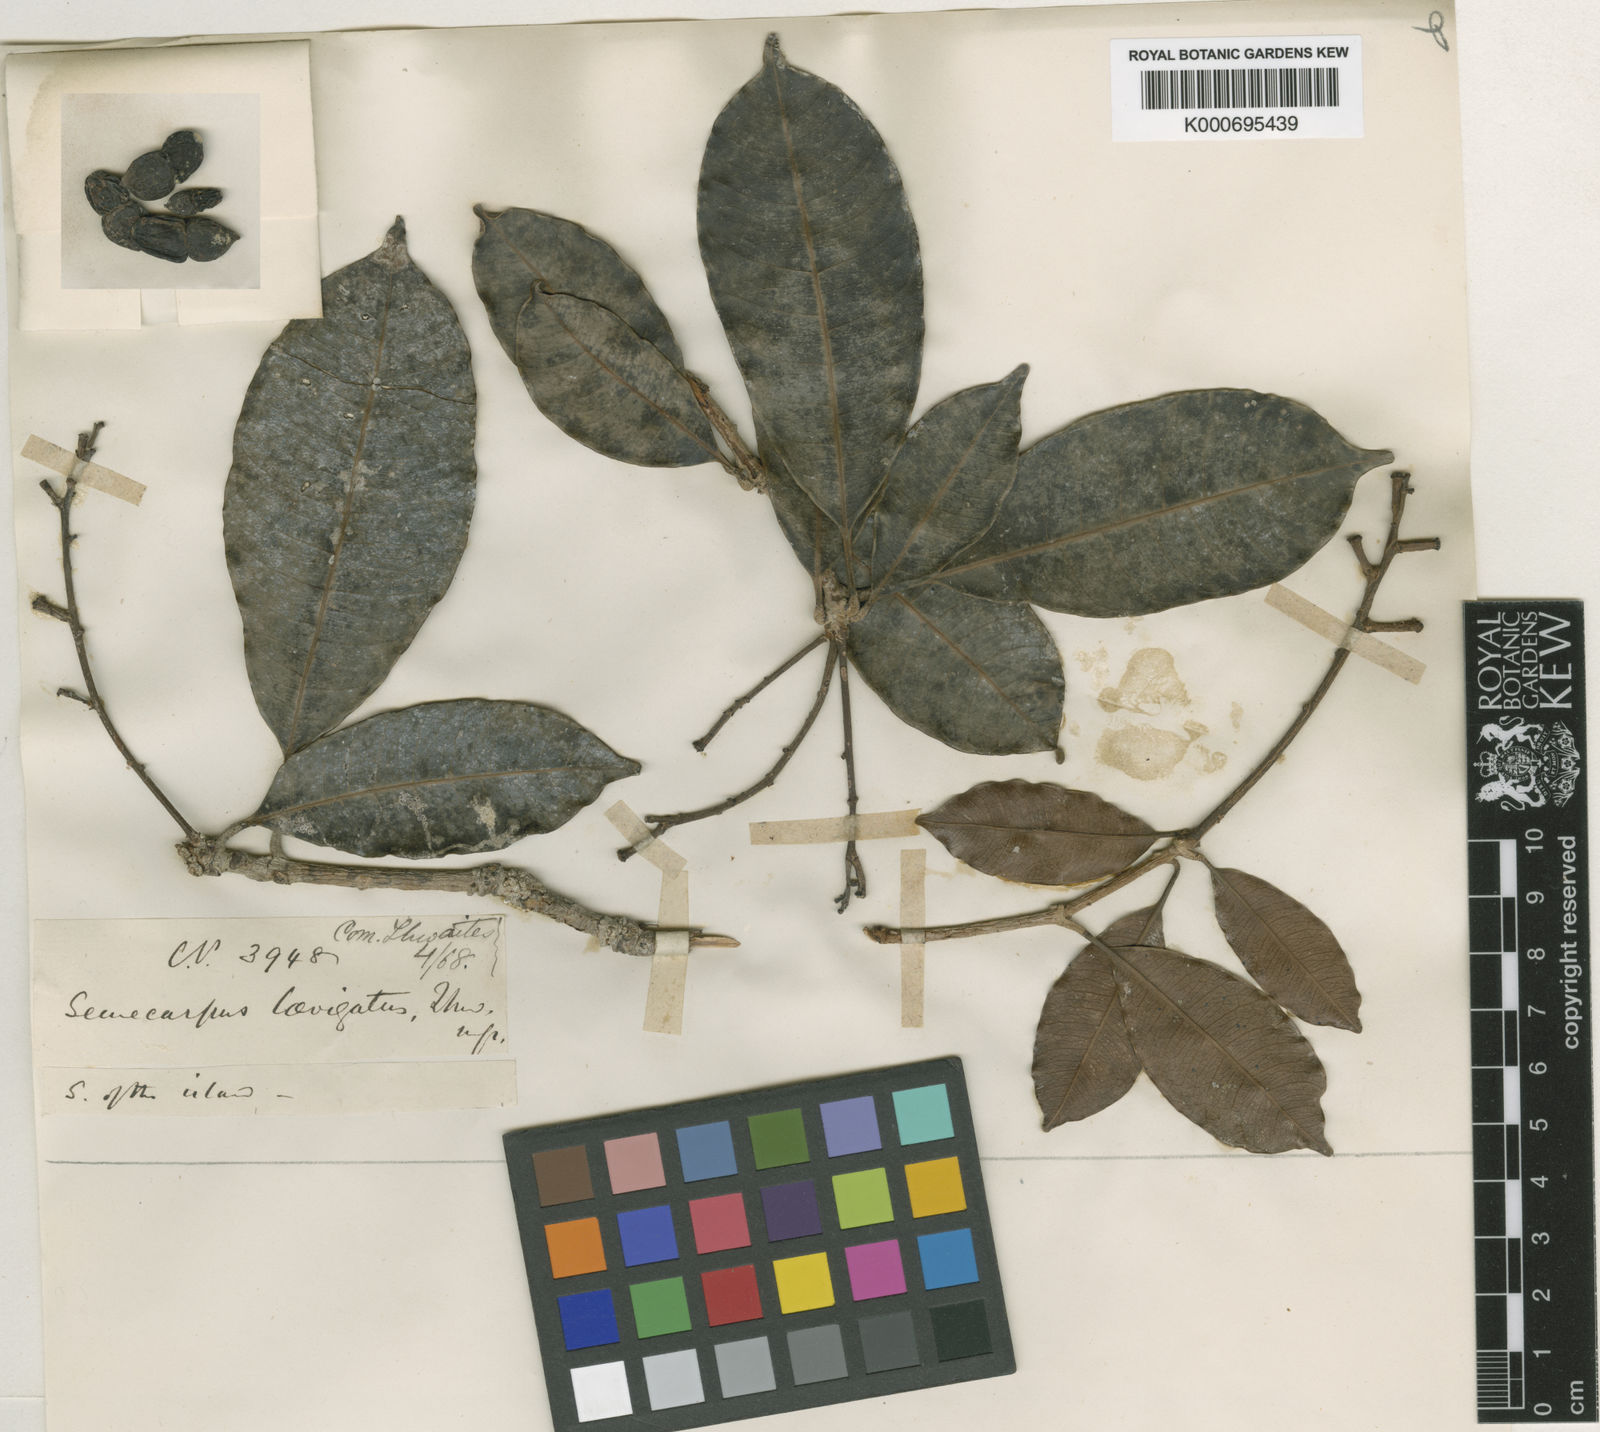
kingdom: Plantae
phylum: Tracheophyta
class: Magnoliopsida
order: Sapindales
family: Anacardiaceae
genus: Semecarpus
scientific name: Semecarpus nigroviridis
